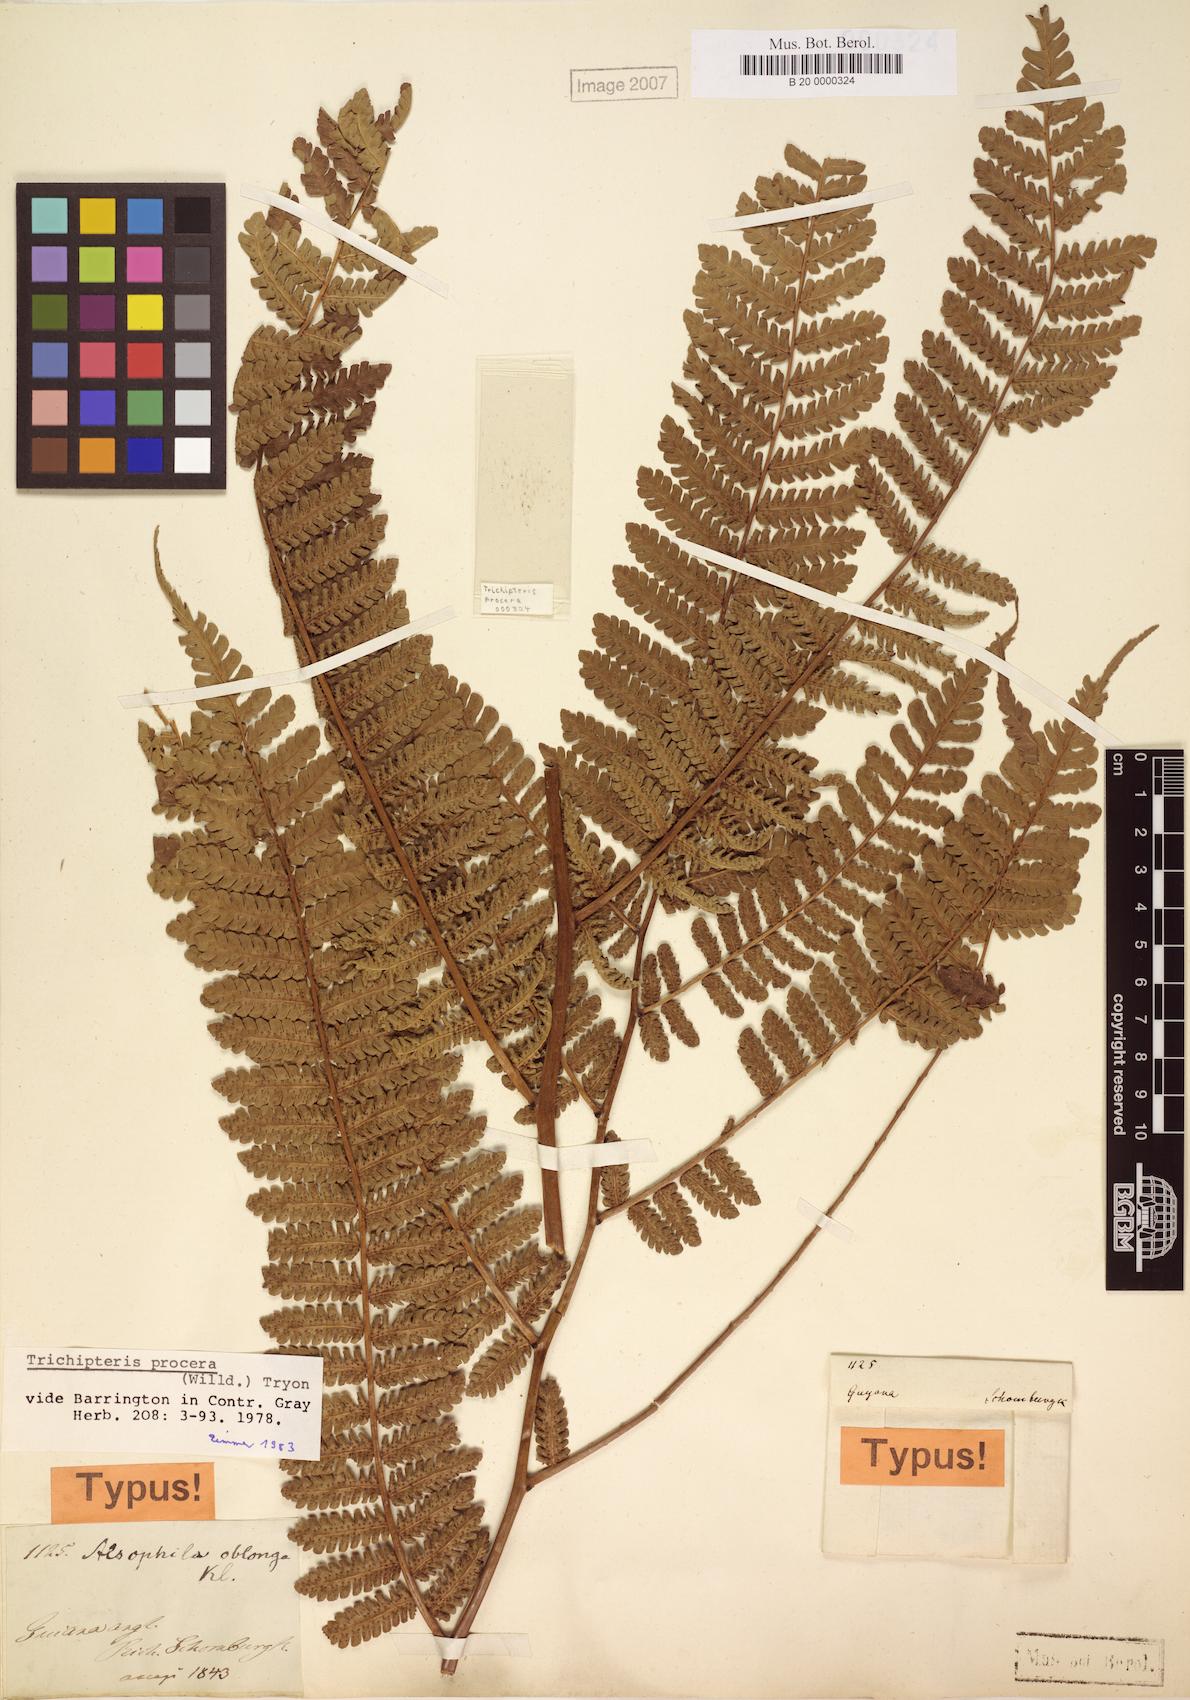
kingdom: Plantae
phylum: Tracheophyta
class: Polypodiopsida
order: Cyatheales
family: Cyatheaceae
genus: Cyathea
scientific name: Cyathea pungens
